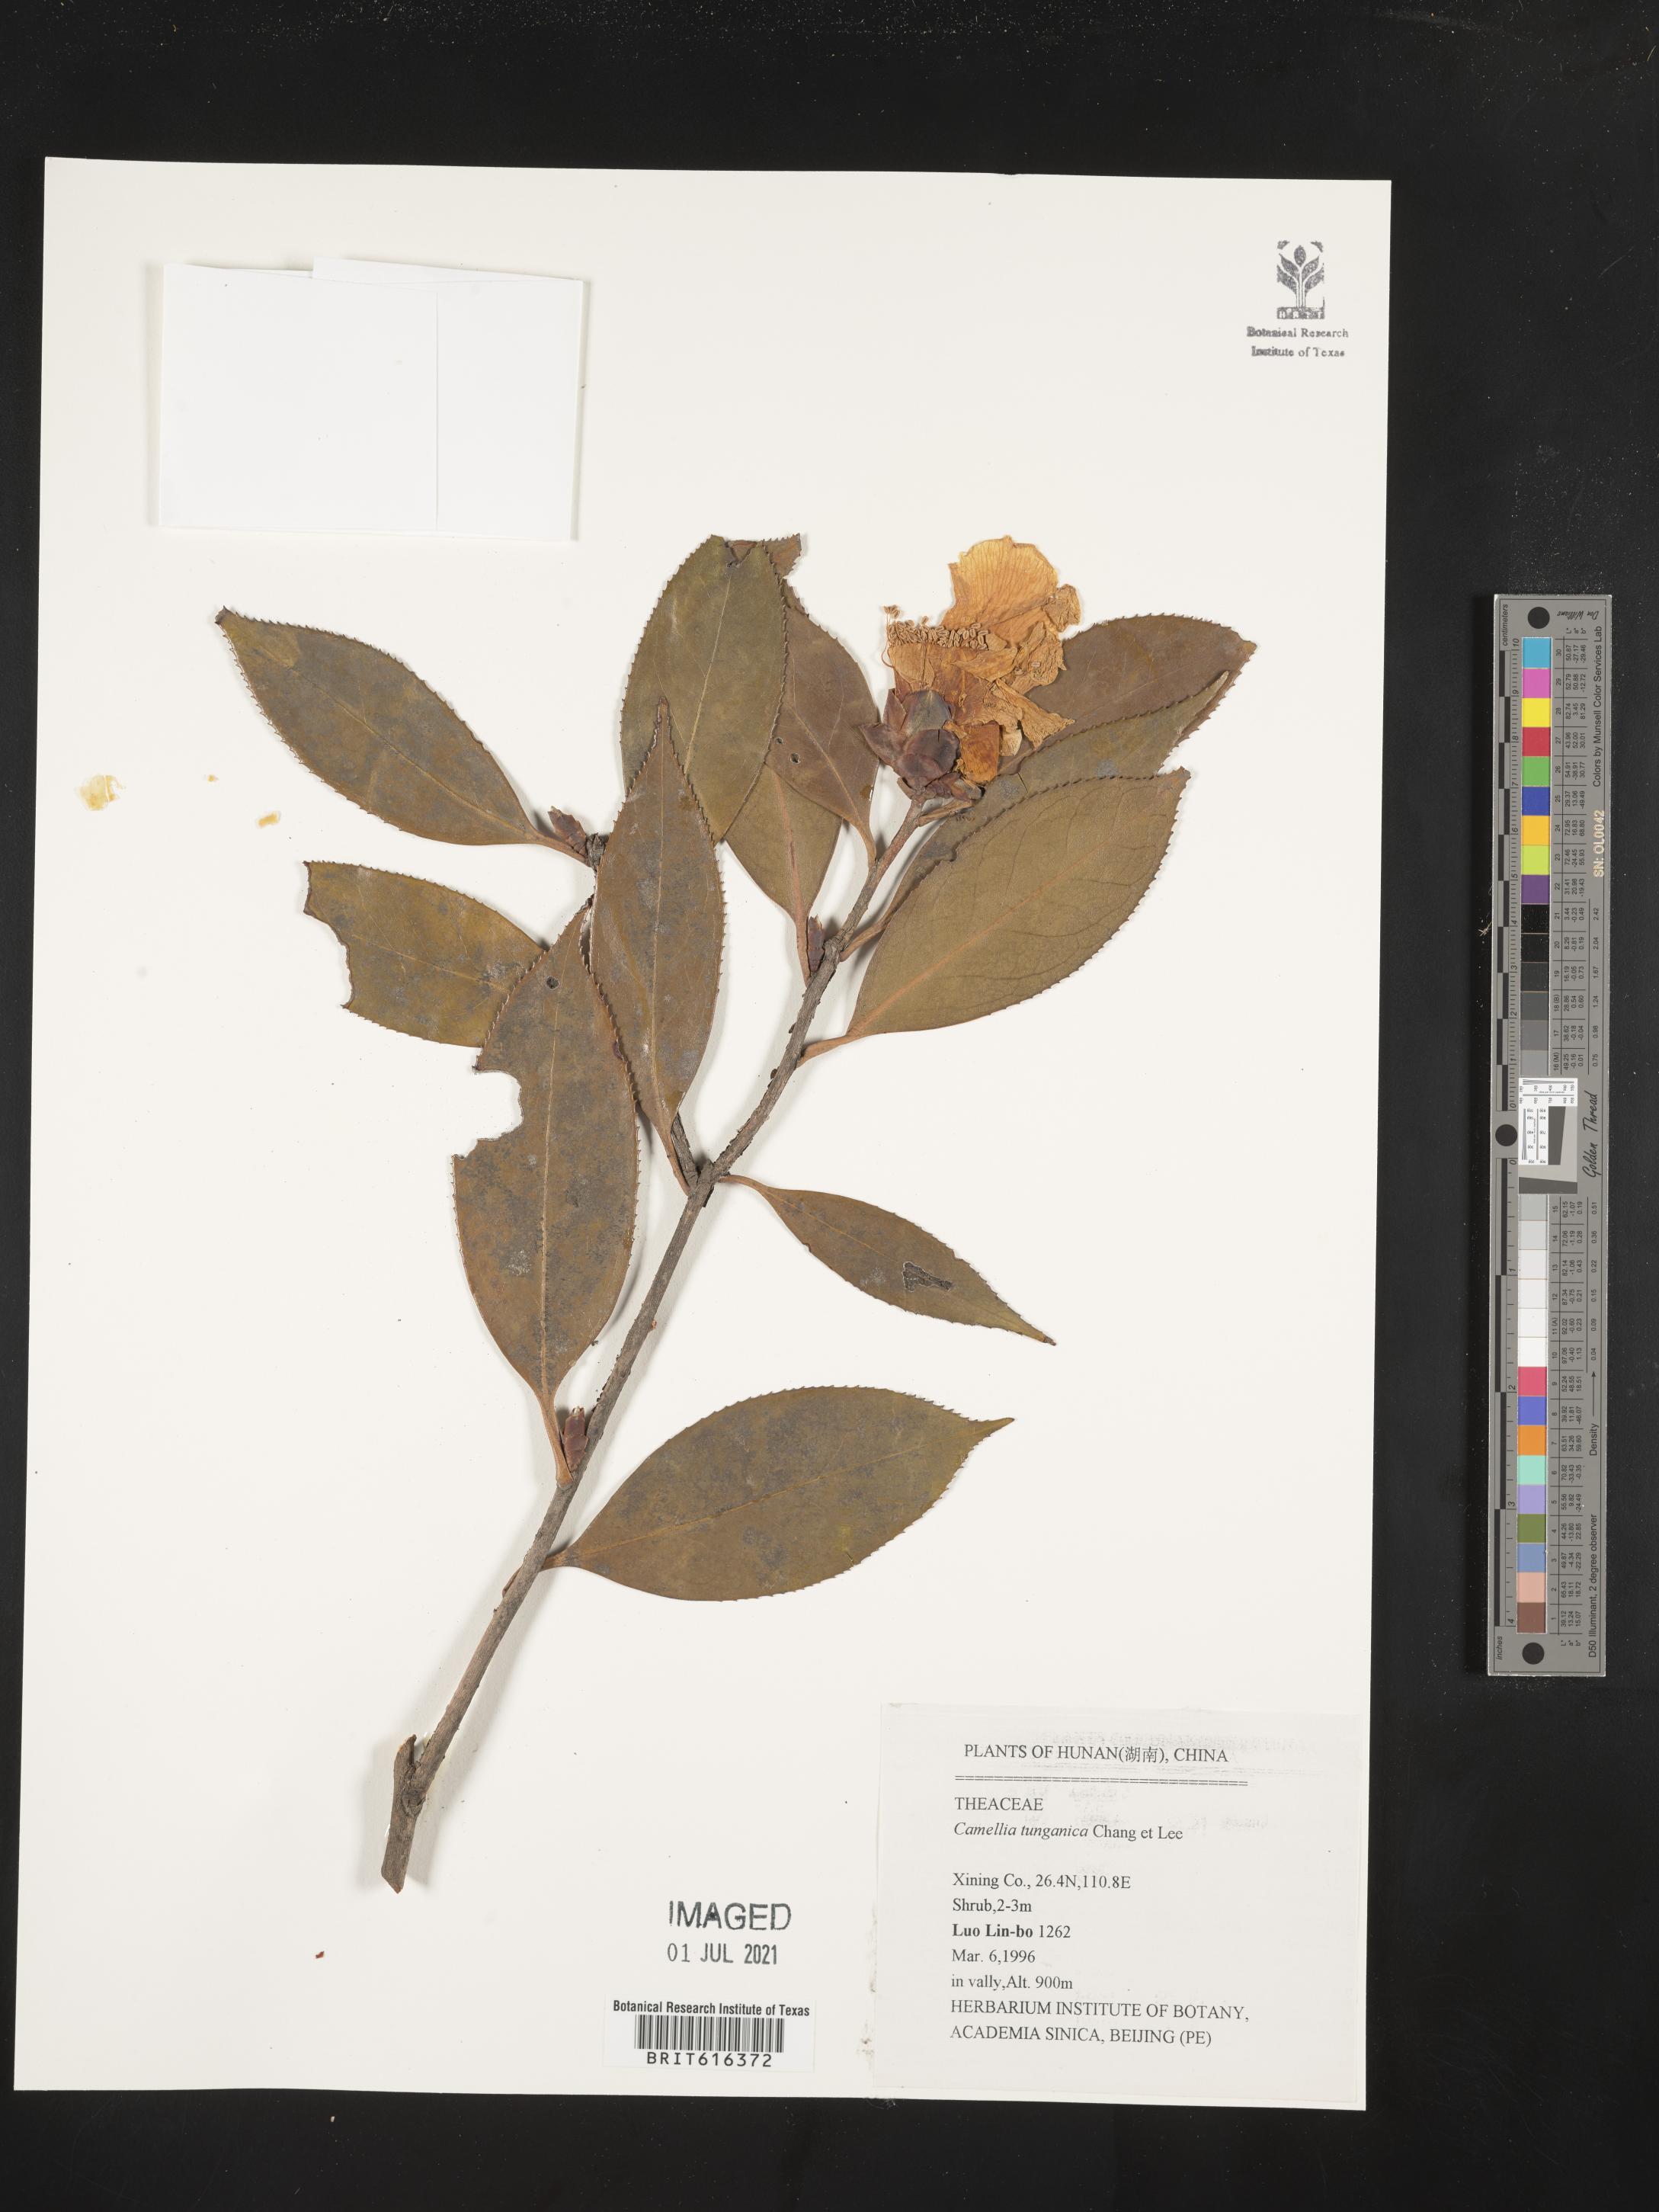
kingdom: Plantae
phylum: Tracheophyta
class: Magnoliopsida
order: Ericales
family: Theaceae
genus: Camellia
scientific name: Camellia pitardii
